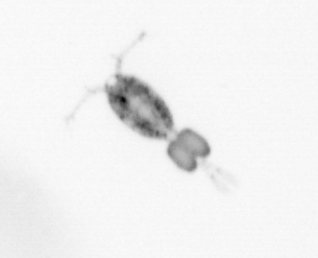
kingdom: Animalia
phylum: Arthropoda
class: Copepoda
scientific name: Copepoda
